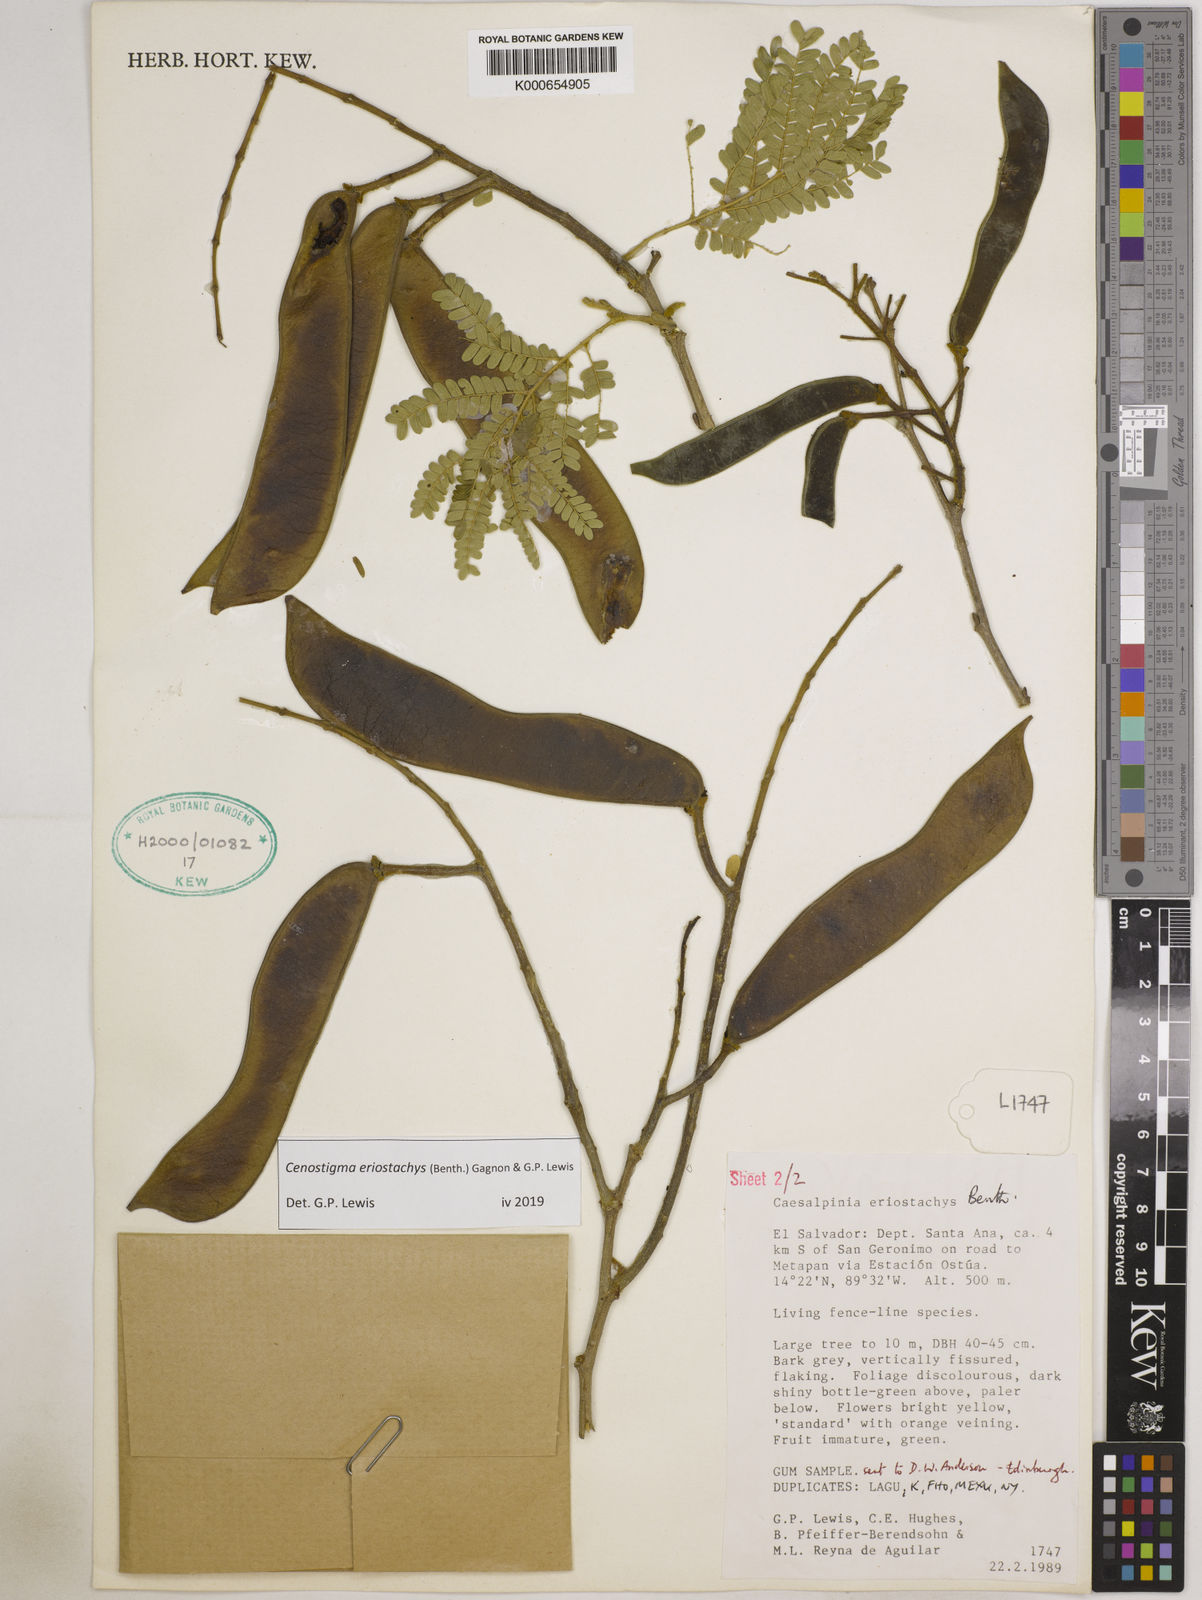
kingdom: Plantae
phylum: Tracheophyta
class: Magnoliopsida
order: Fabales
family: Fabaceae
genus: Cenostigma
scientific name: Cenostigma eriostachys
